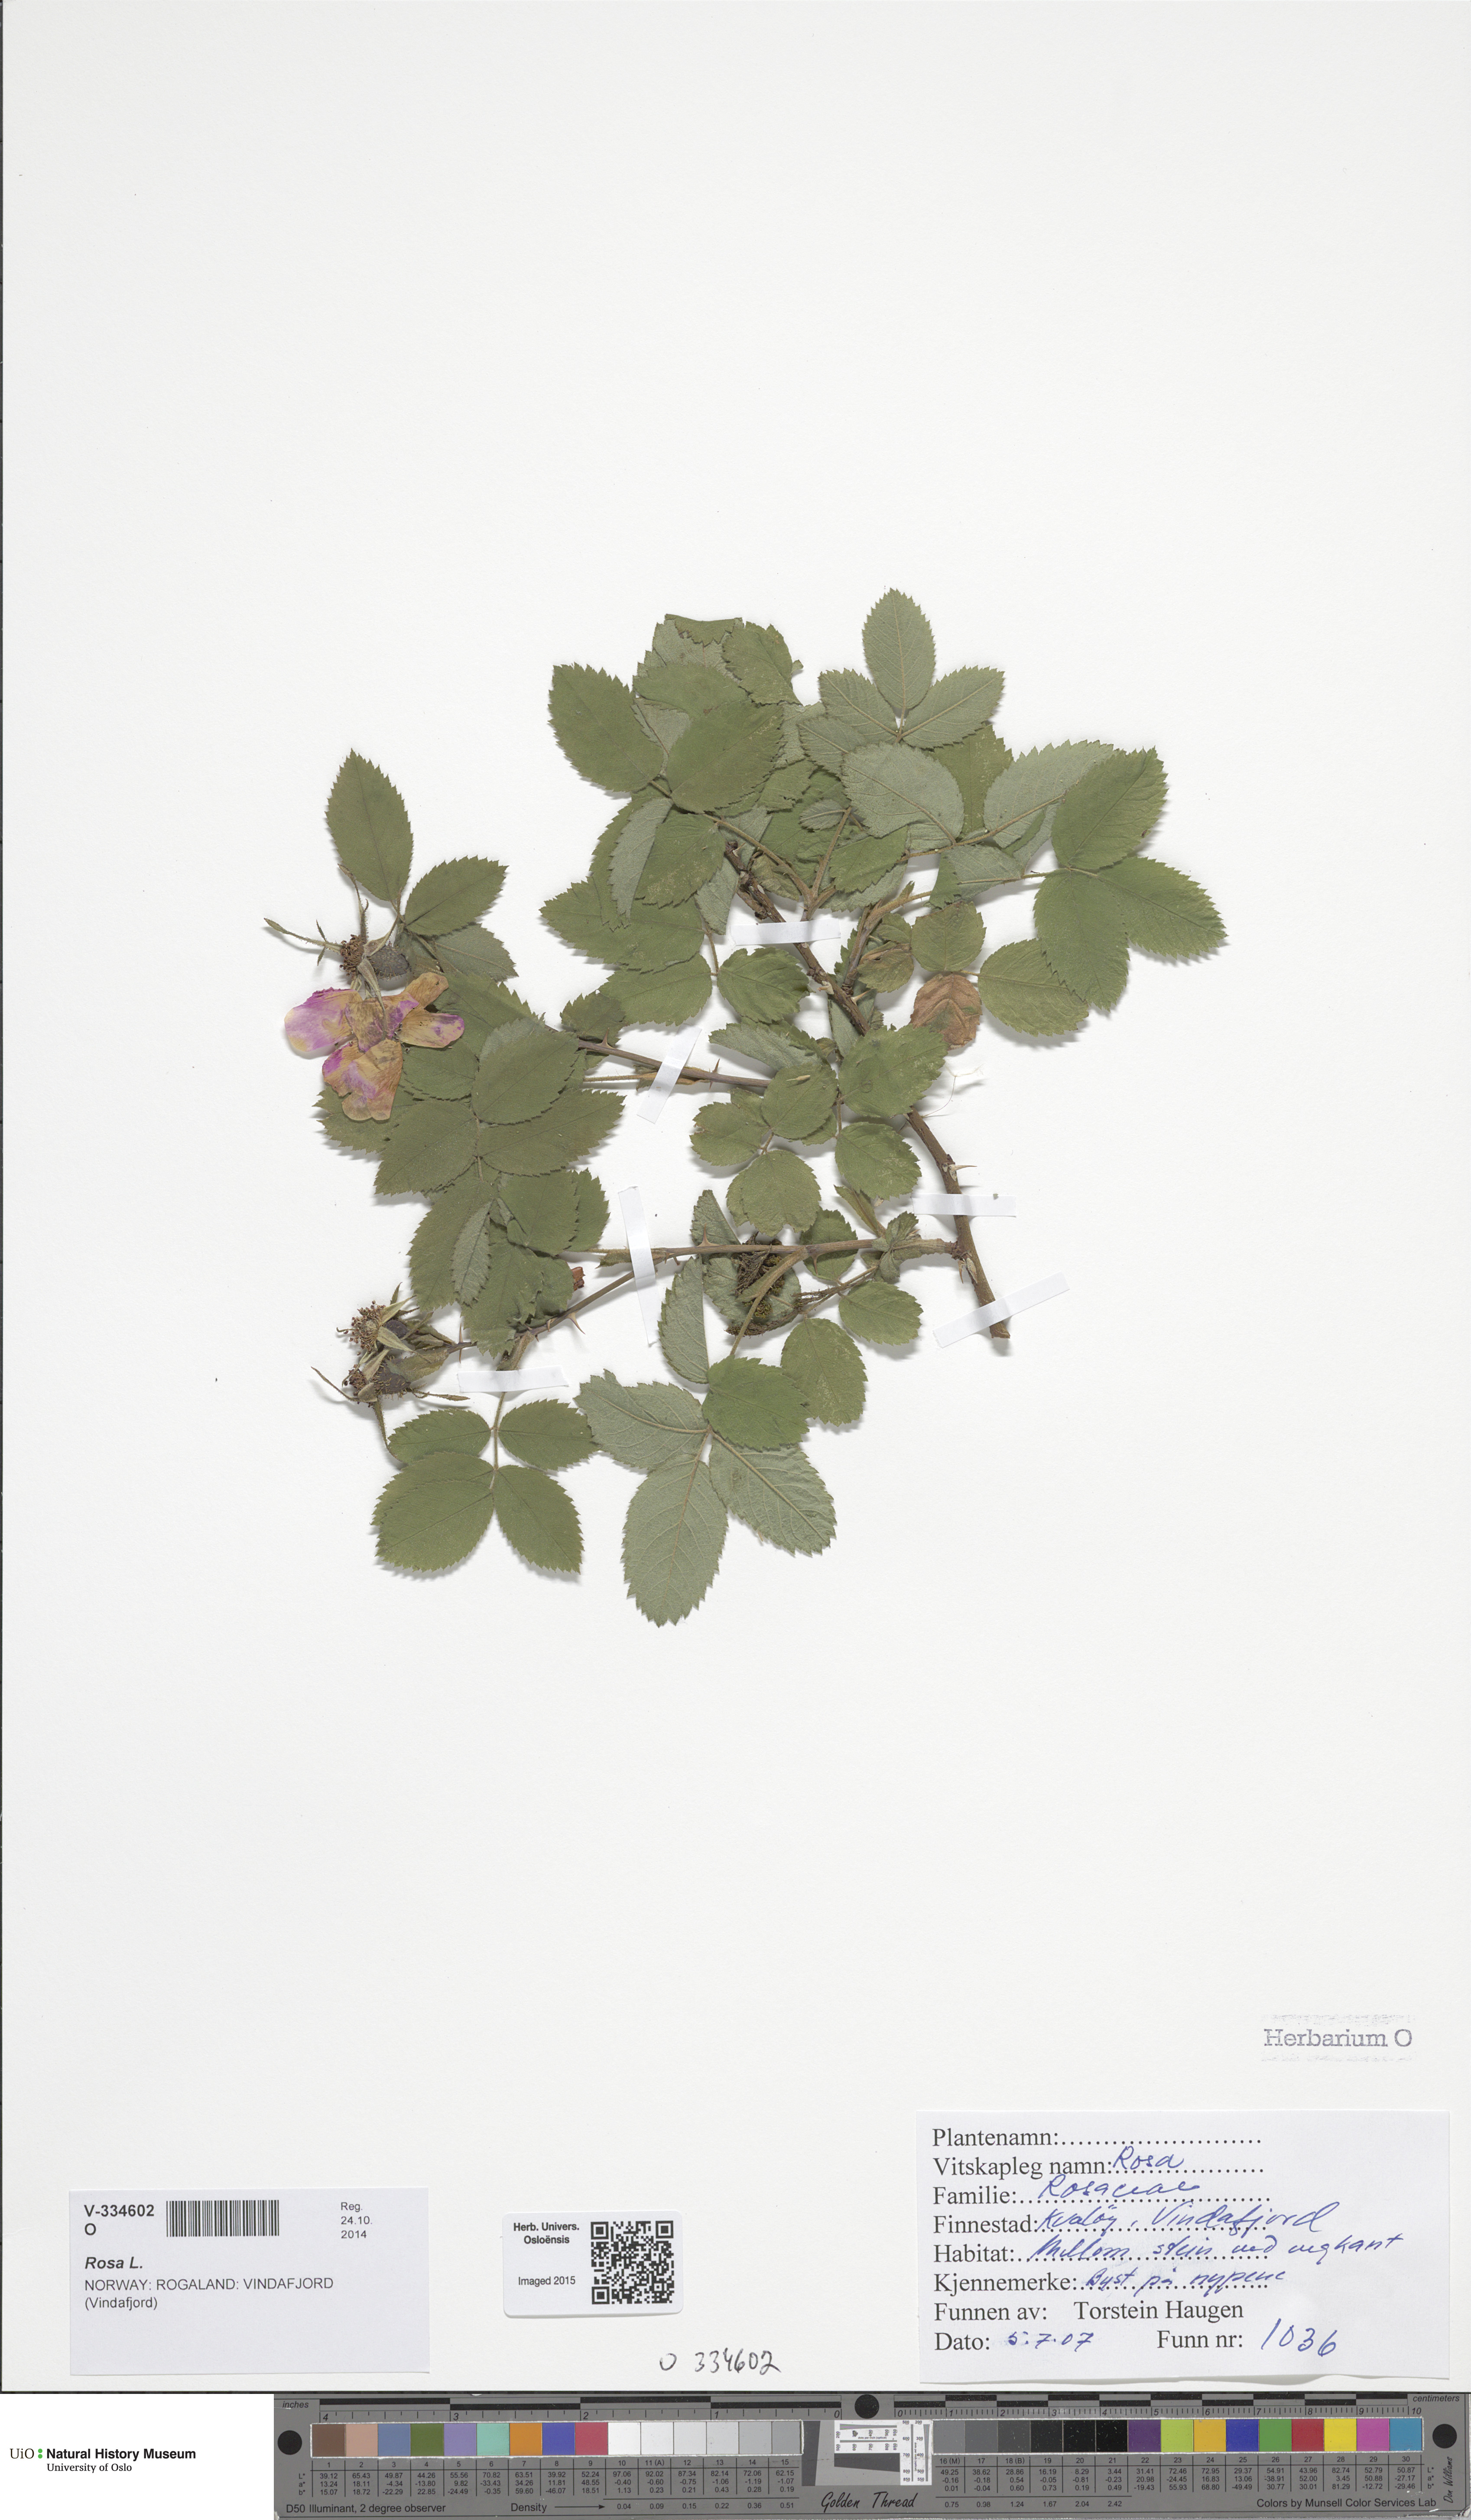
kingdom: Plantae
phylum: Tracheophyta
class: Magnoliopsida
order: Rosales
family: Rosaceae
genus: Rosa
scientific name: Rosa mollis
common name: Rose
